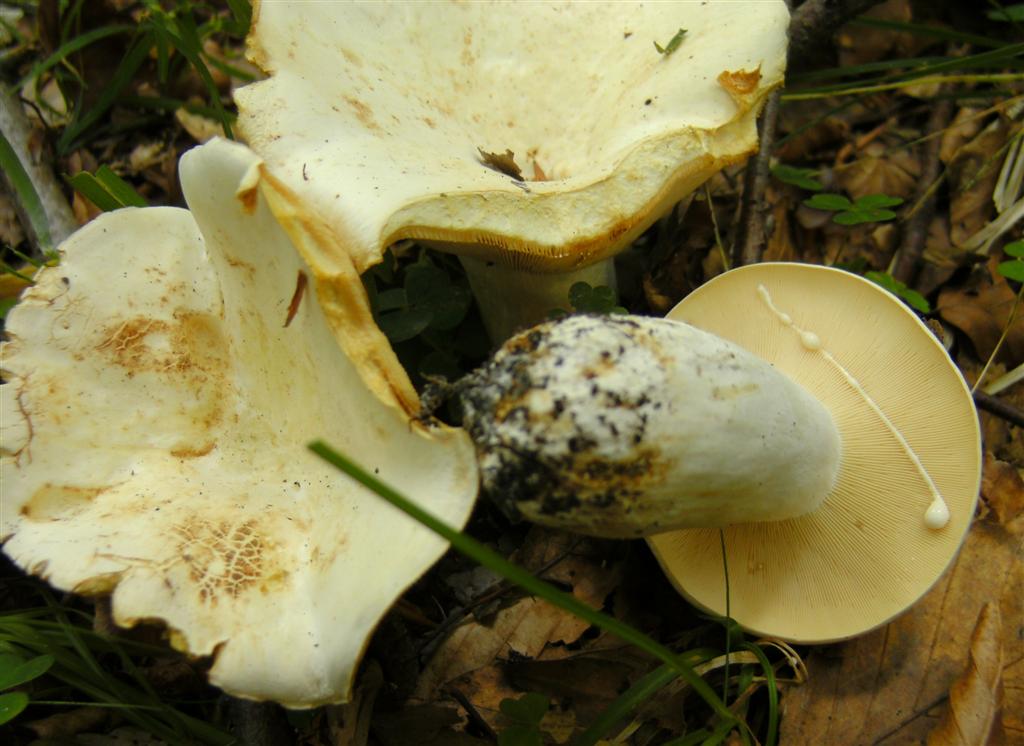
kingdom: Fungi
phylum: Basidiomycota
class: Agaricomycetes
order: Russulales
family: Russulaceae
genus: Lactifluus
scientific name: Lactifluus piperatus
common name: peber-mælkehat
